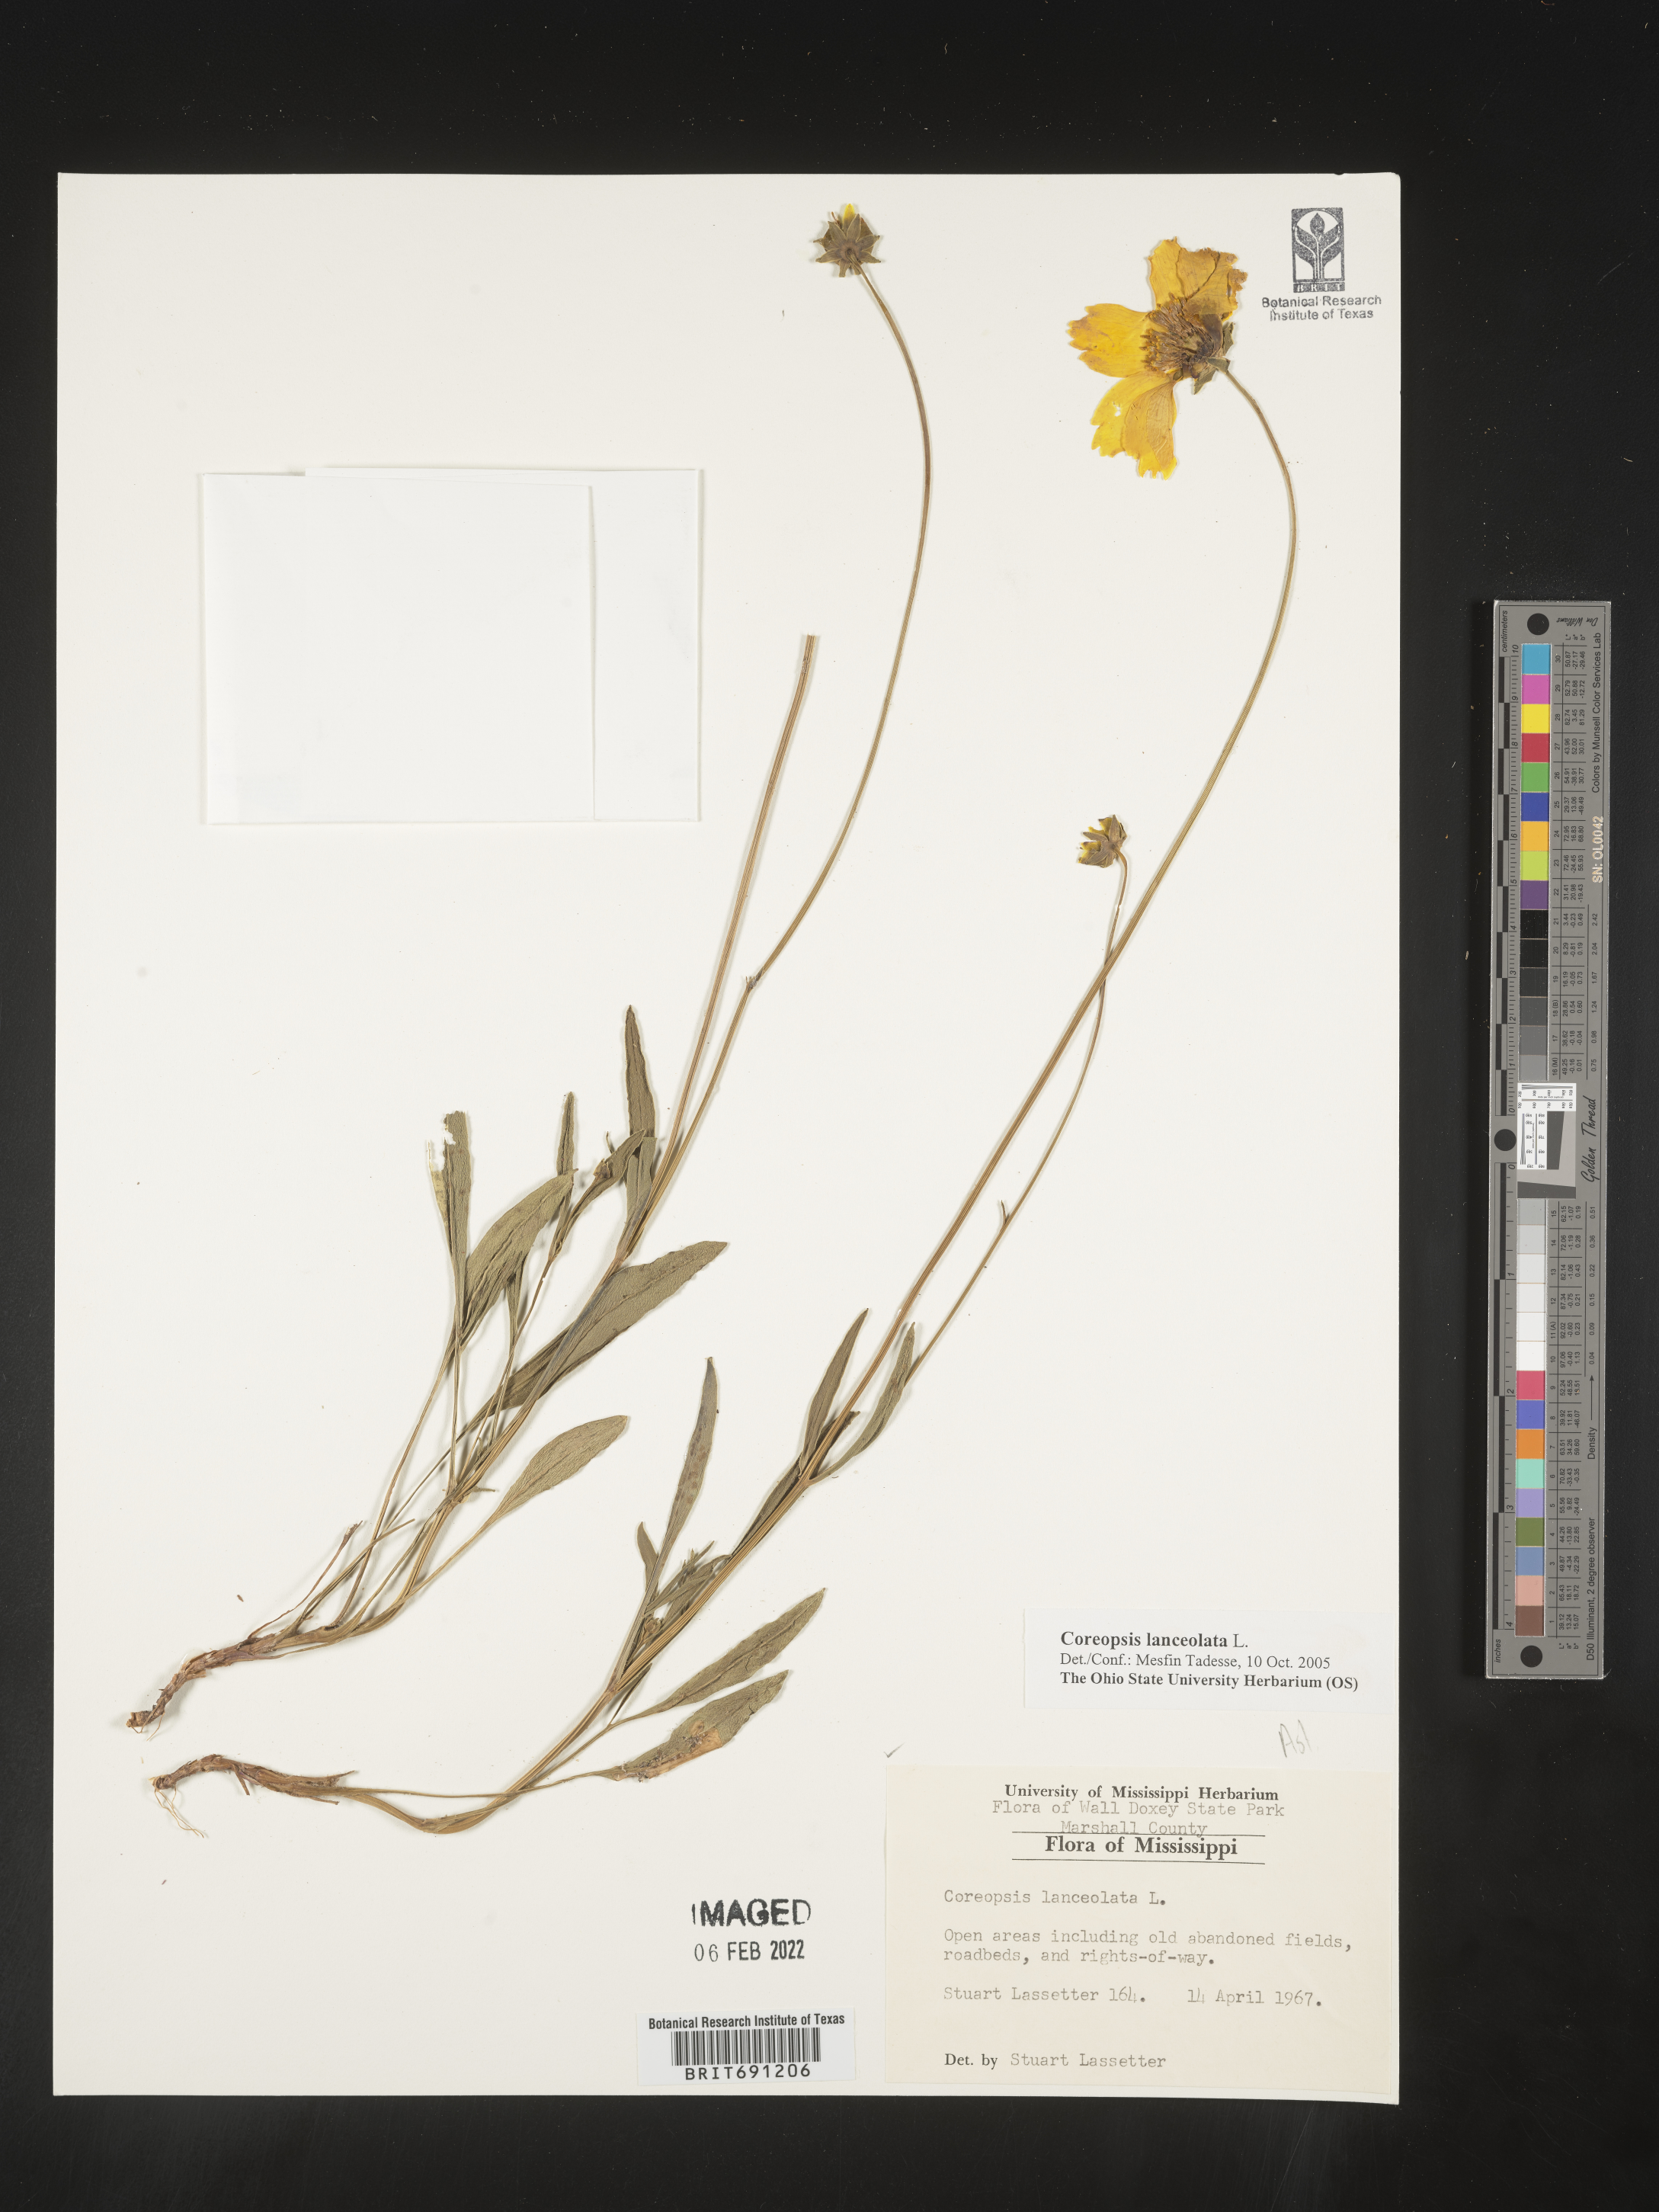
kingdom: Plantae
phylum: Tracheophyta
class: Magnoliopsida
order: Asterales
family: Asteraceae
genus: Coreopsis
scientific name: Coreopsis lanceolata
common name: Garden coreopsis
